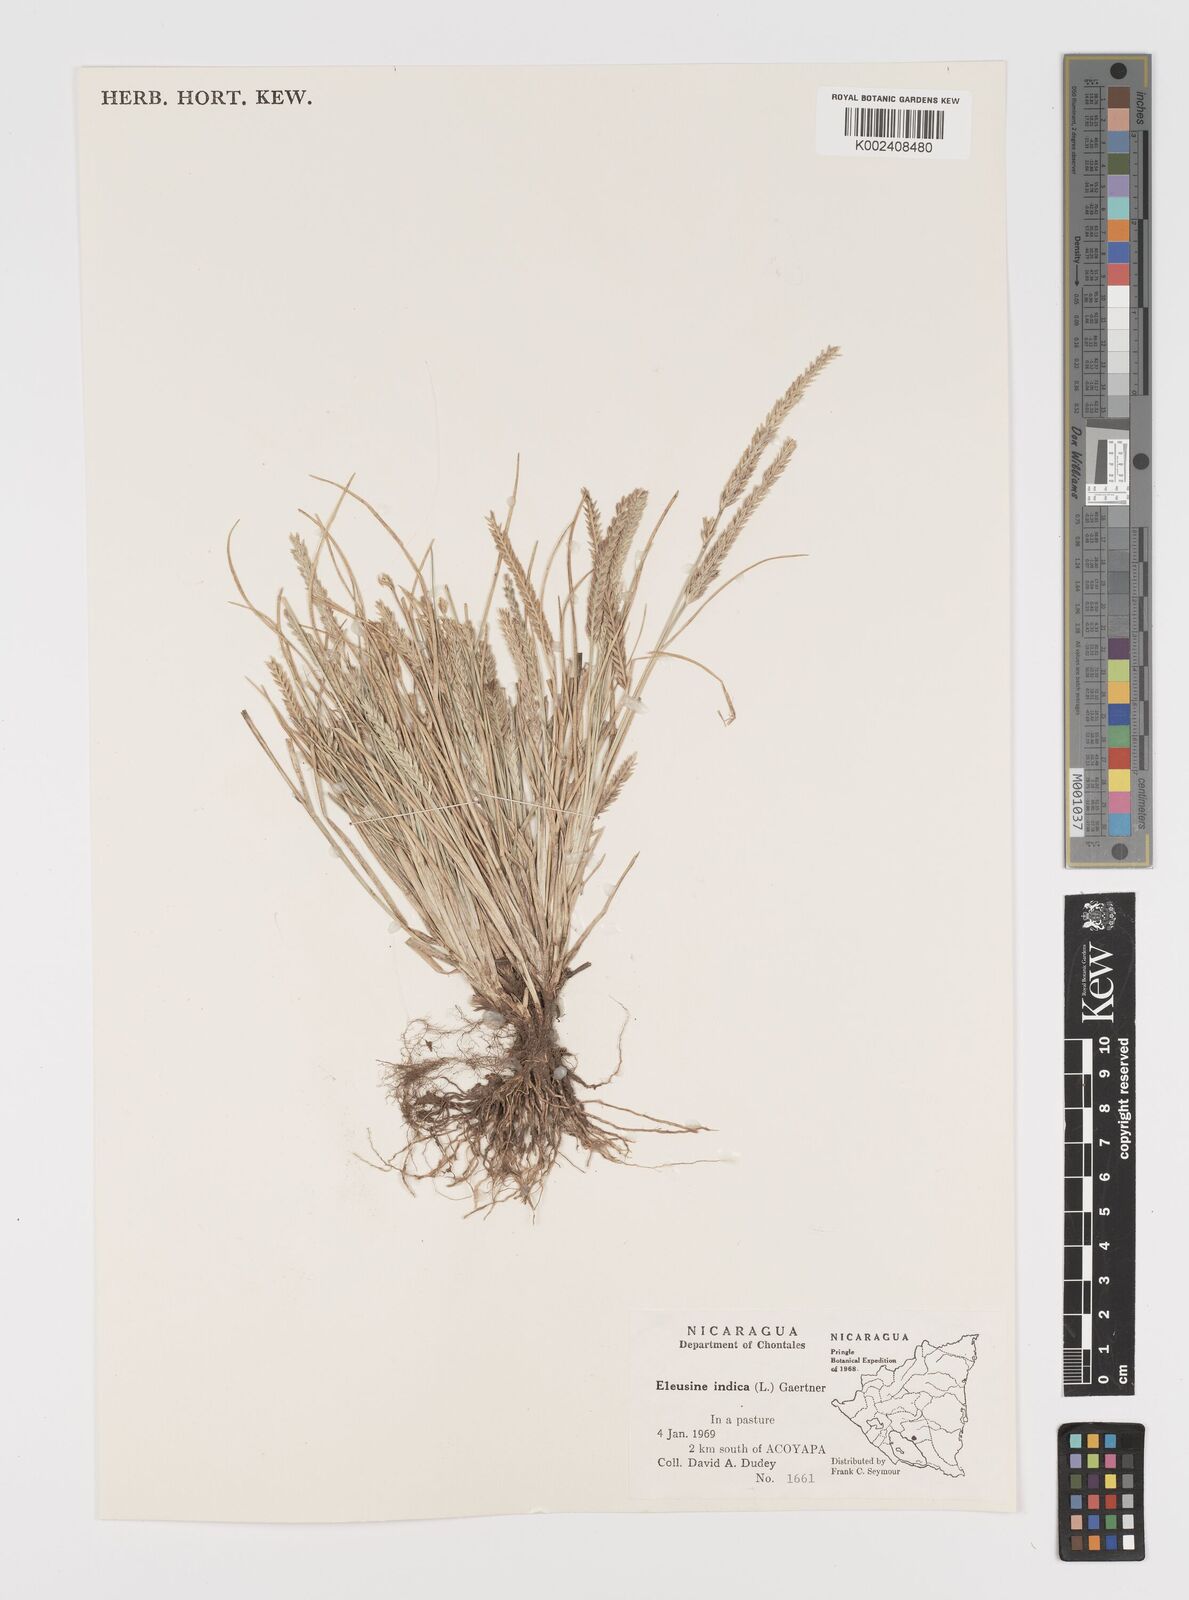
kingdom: Plantae
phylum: Tracheophyta
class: Liliopsida
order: Poales
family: Poaceae
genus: Eleusine
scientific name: Eleusine indica
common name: Yard-grass
